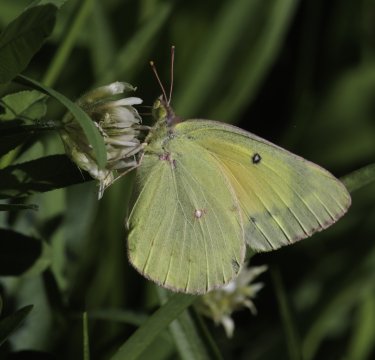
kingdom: Animalia
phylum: Arthropoda
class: Insecta
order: Lepidoptera
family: Pieridae
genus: Colias
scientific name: Colias eurytheme
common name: Orange Sulphur
